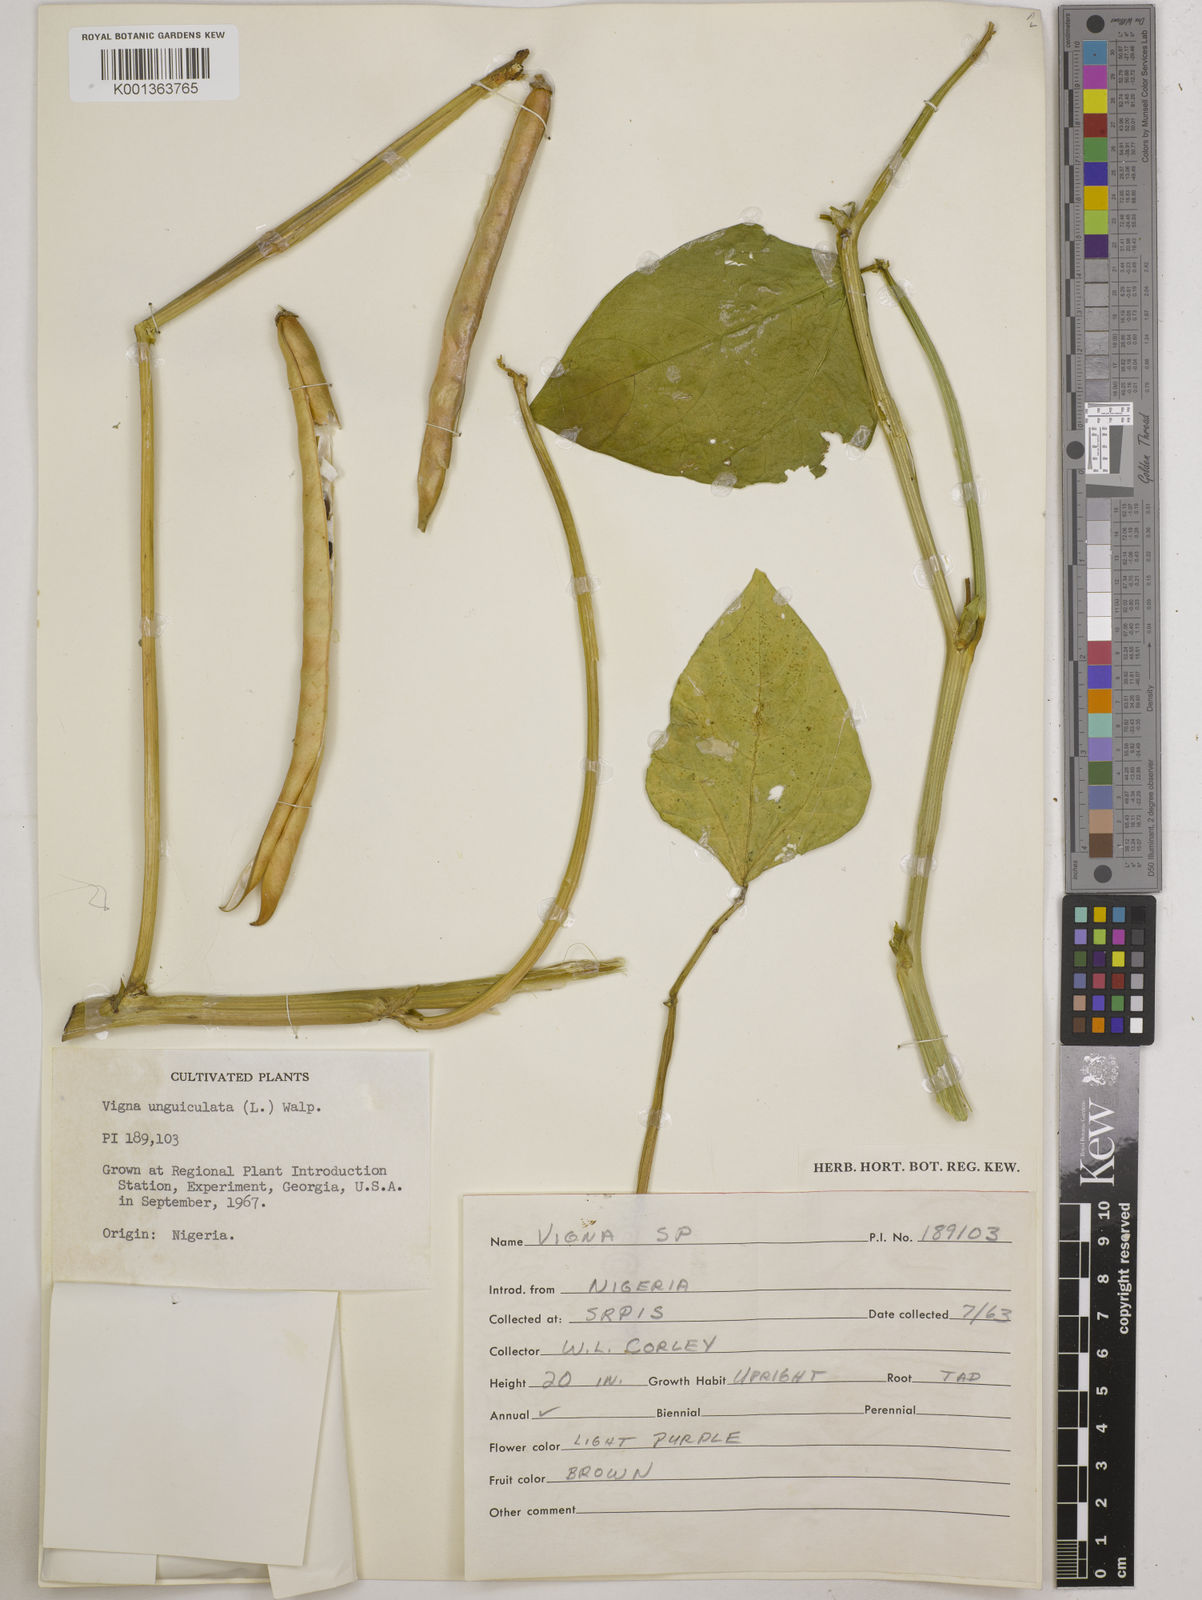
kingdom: Plantae
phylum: Tracheophyta
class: Magnoliopsida
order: Fabales
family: Fabaceae
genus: Vigna
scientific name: Vigna unguiculata
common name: Cowpea
